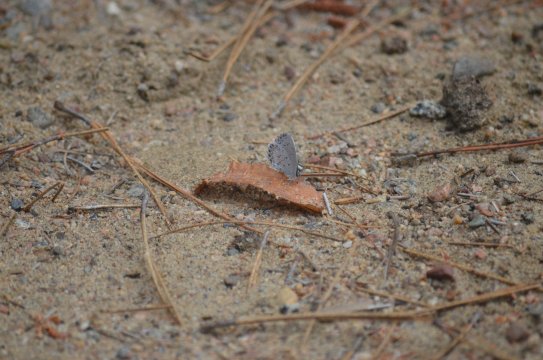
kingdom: Animalia
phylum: Arthropoda
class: Insecta
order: Lepidoptera
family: Lycaenidae
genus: Celastrina
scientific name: Celastrina lucia
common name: Northern Spring Azure
